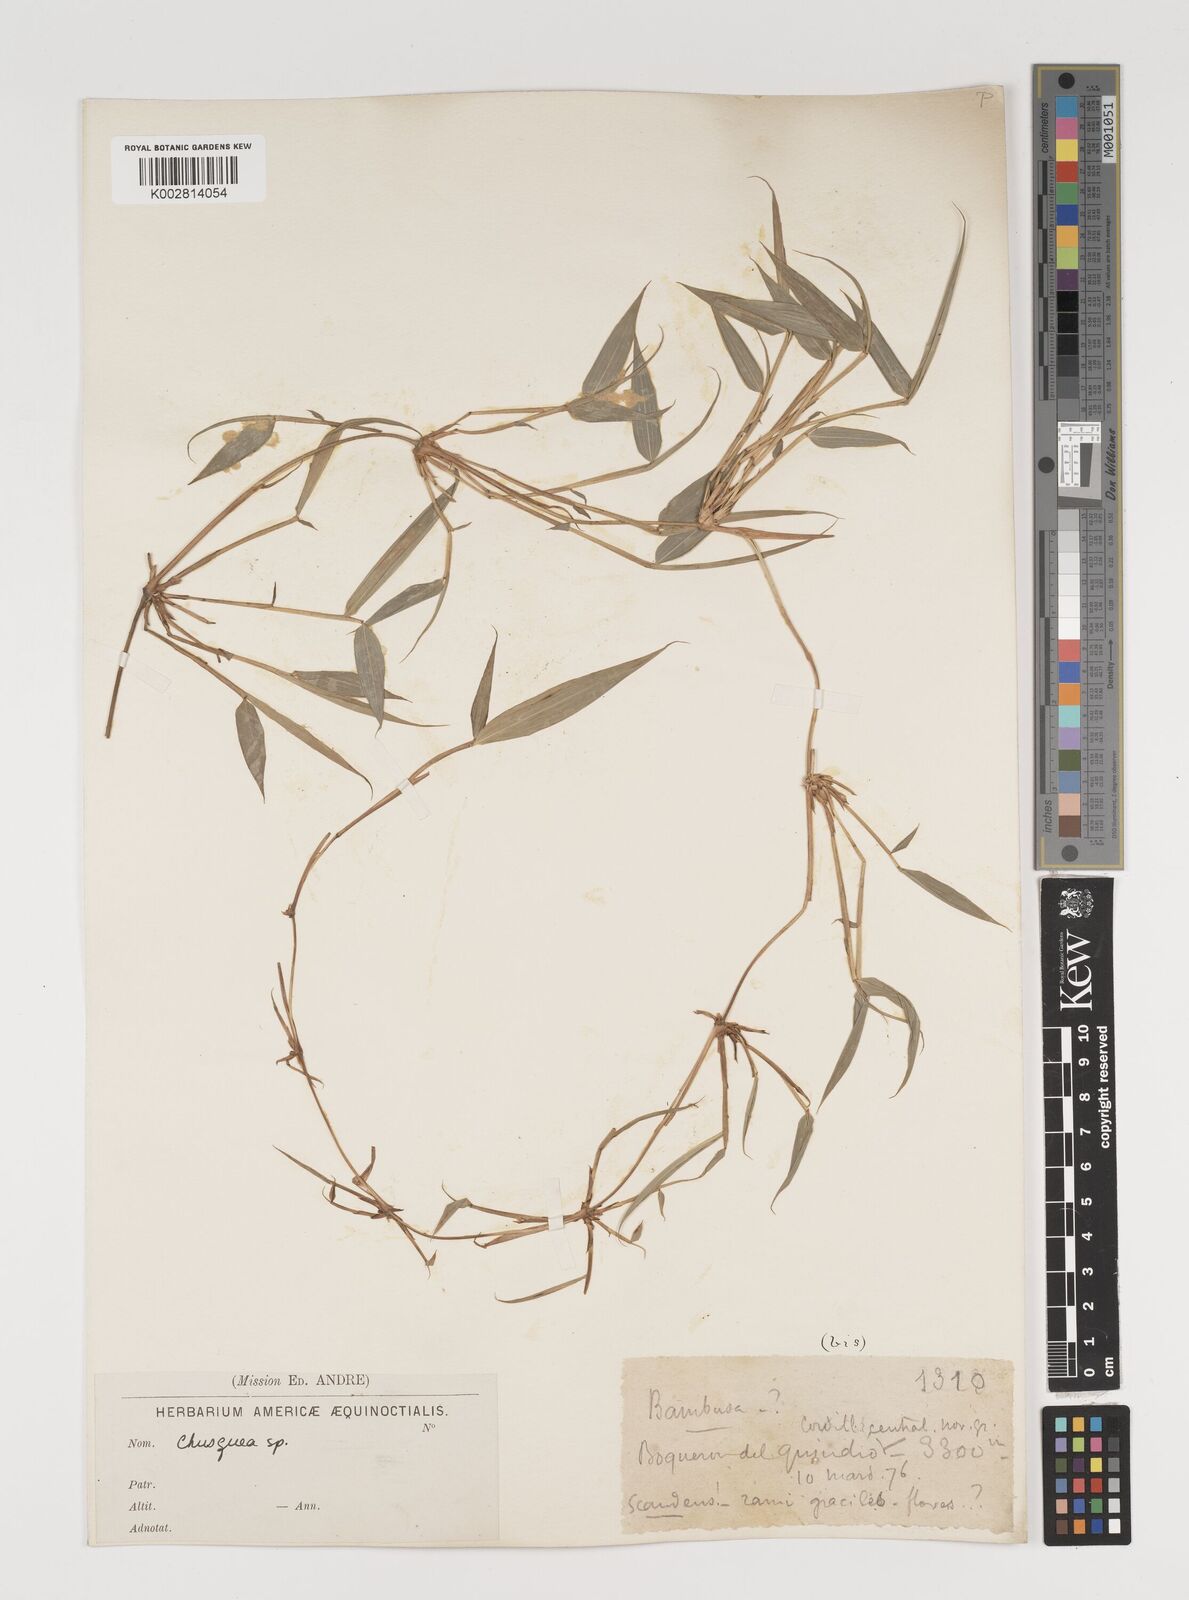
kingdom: Plantae
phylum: Tracheophyta
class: Liliopsida
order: Poales
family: Poaceae
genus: Chusquea
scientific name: Chusquea
